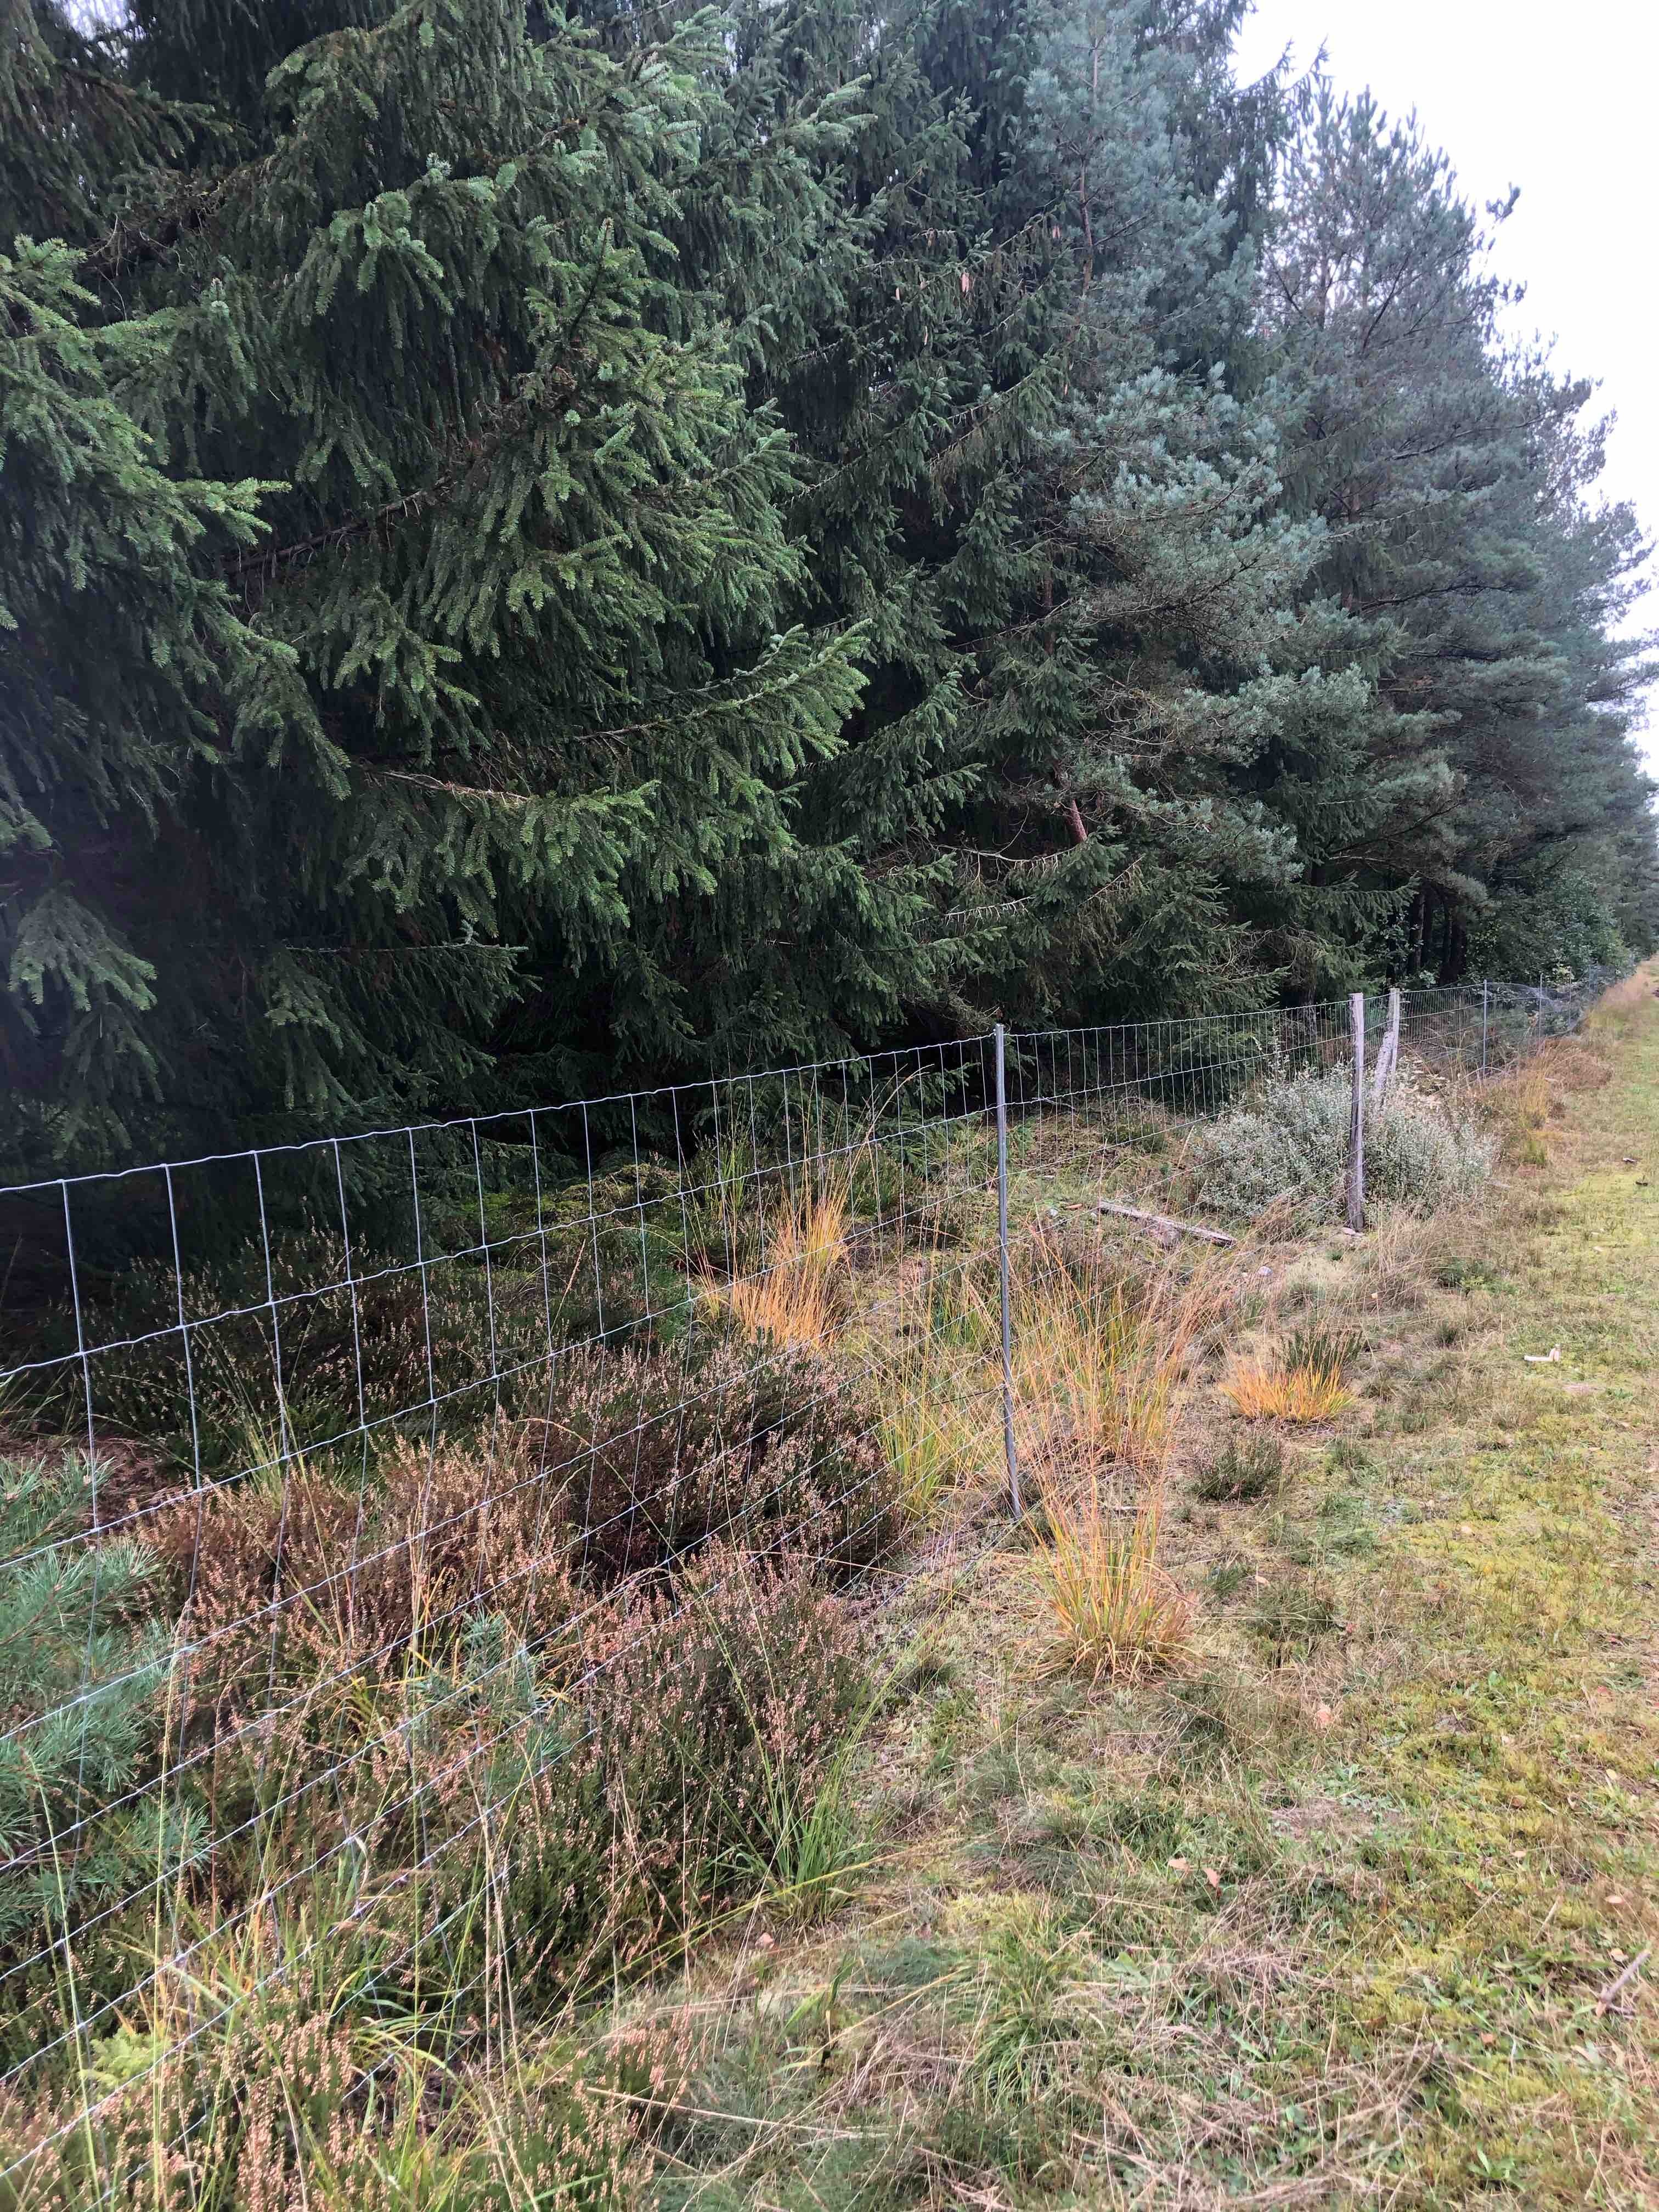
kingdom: Fungi
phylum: Basidiomycota
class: Agaricomycetes
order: Agaricales
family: Hygrophoraceae
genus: Hygrocybe
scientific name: Hygrocybe conica
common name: kegle-vokshat
